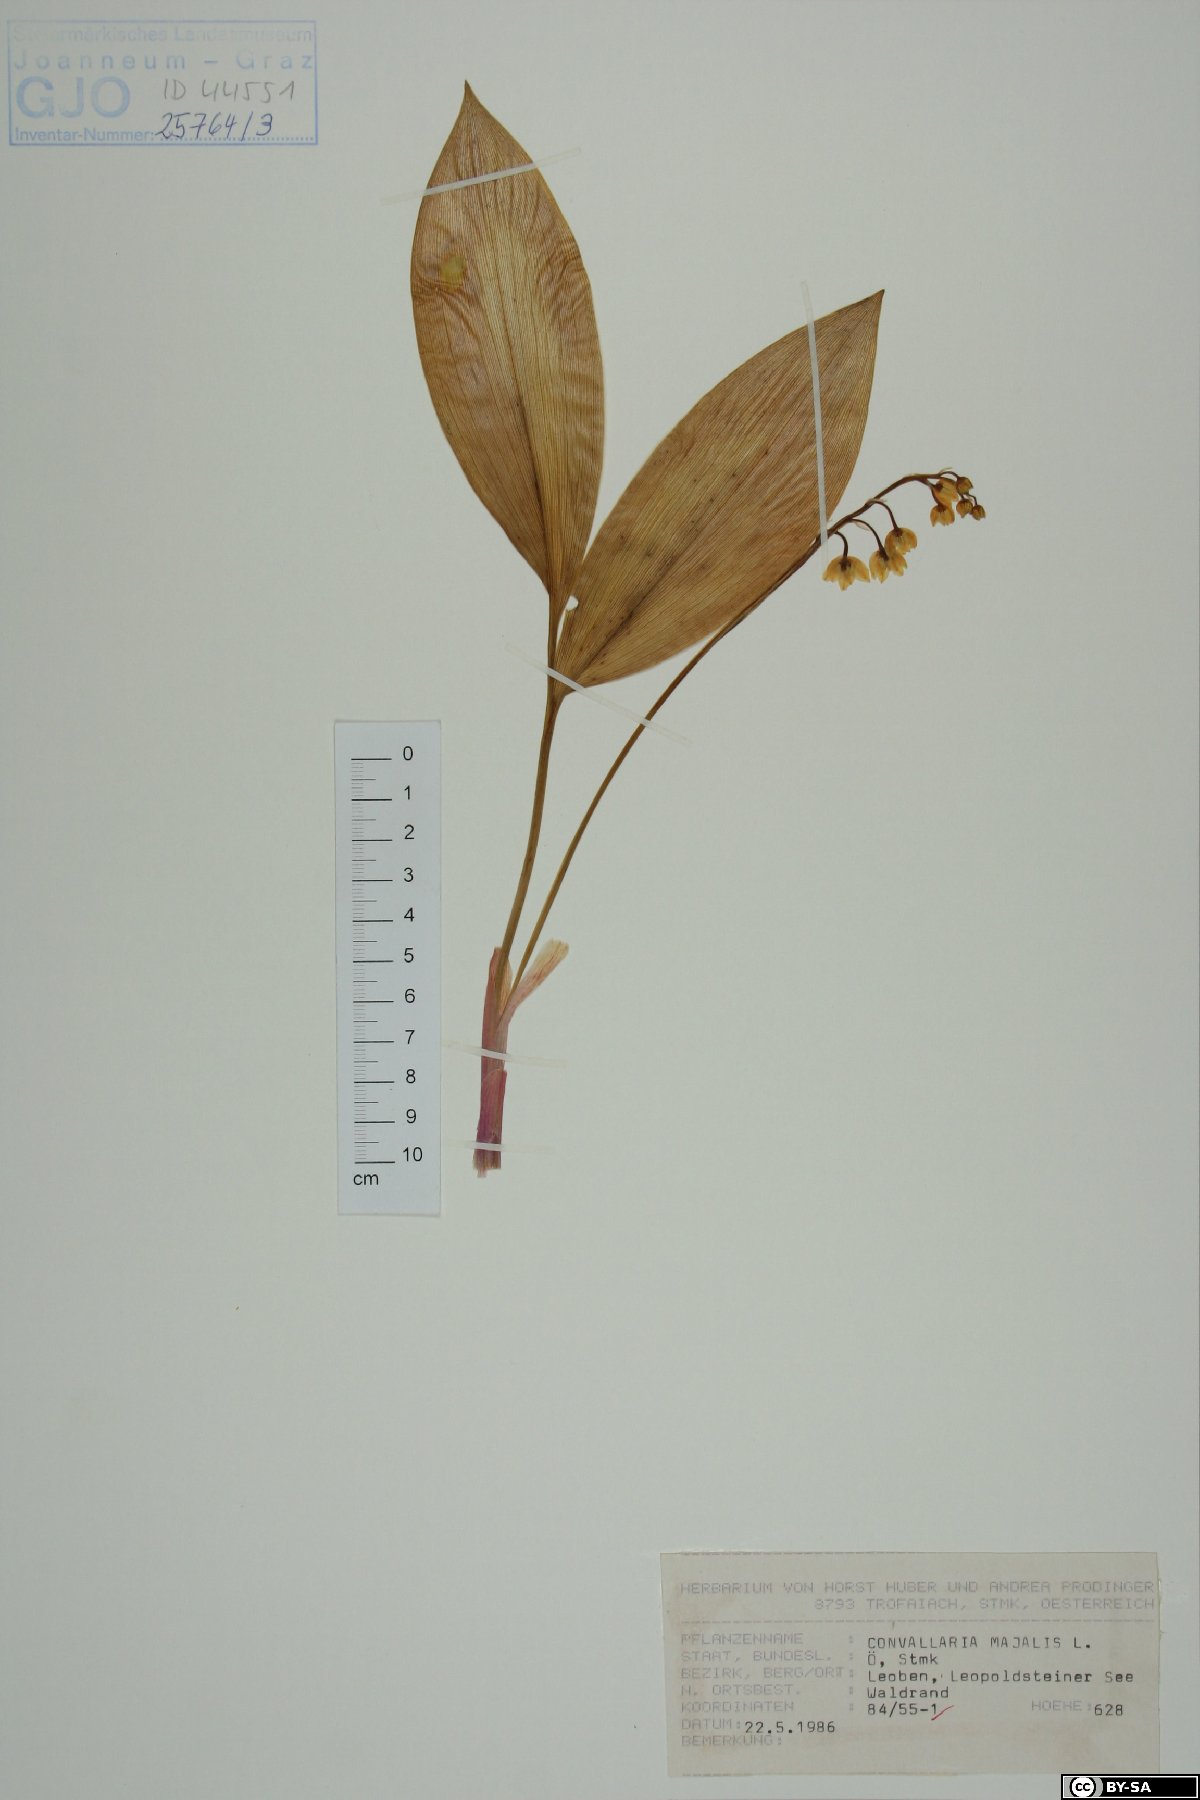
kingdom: Plantae
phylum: Tracheophyta
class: Liliopsida
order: Asparagales
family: Asparagaceae
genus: Convallaria
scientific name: Convallaria majalis
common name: Lily-of-the-valley
